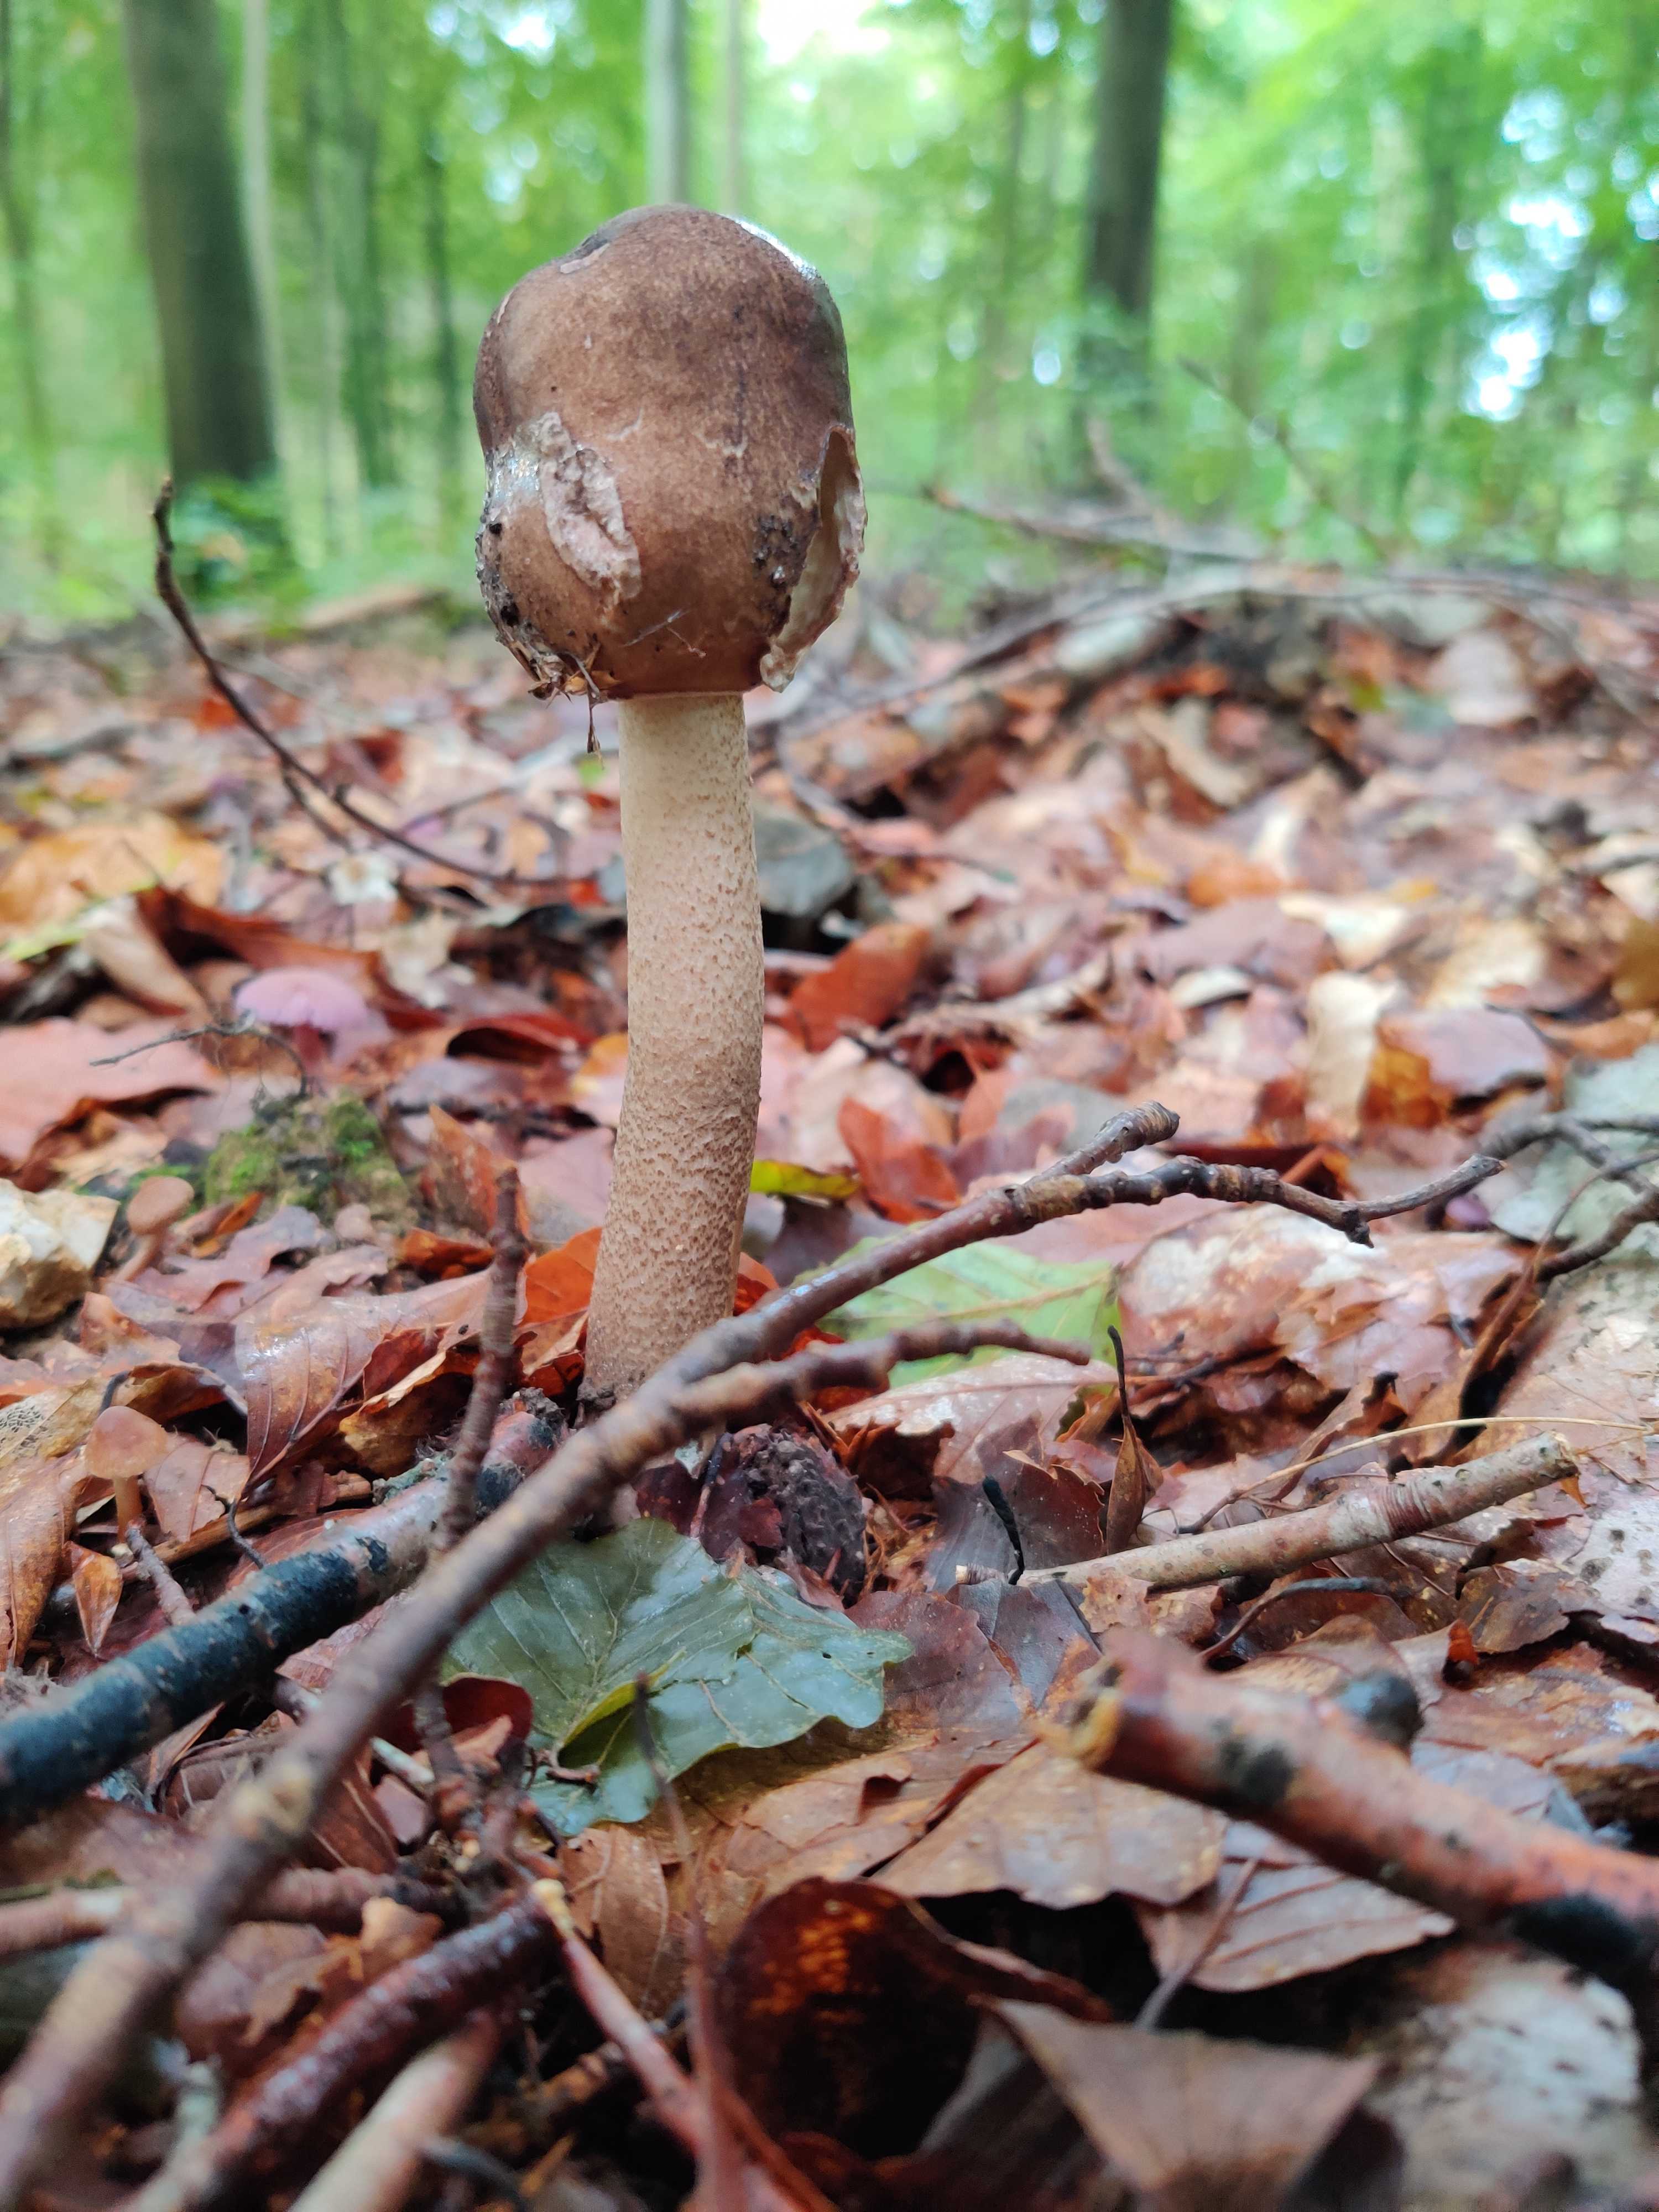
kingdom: Fungi
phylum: Basidiomycota
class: Agaricomycetes
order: Agaricales
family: Agaricaceae
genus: Macrolepiota
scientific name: Macrolepiota
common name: kæmpeparasolhat
